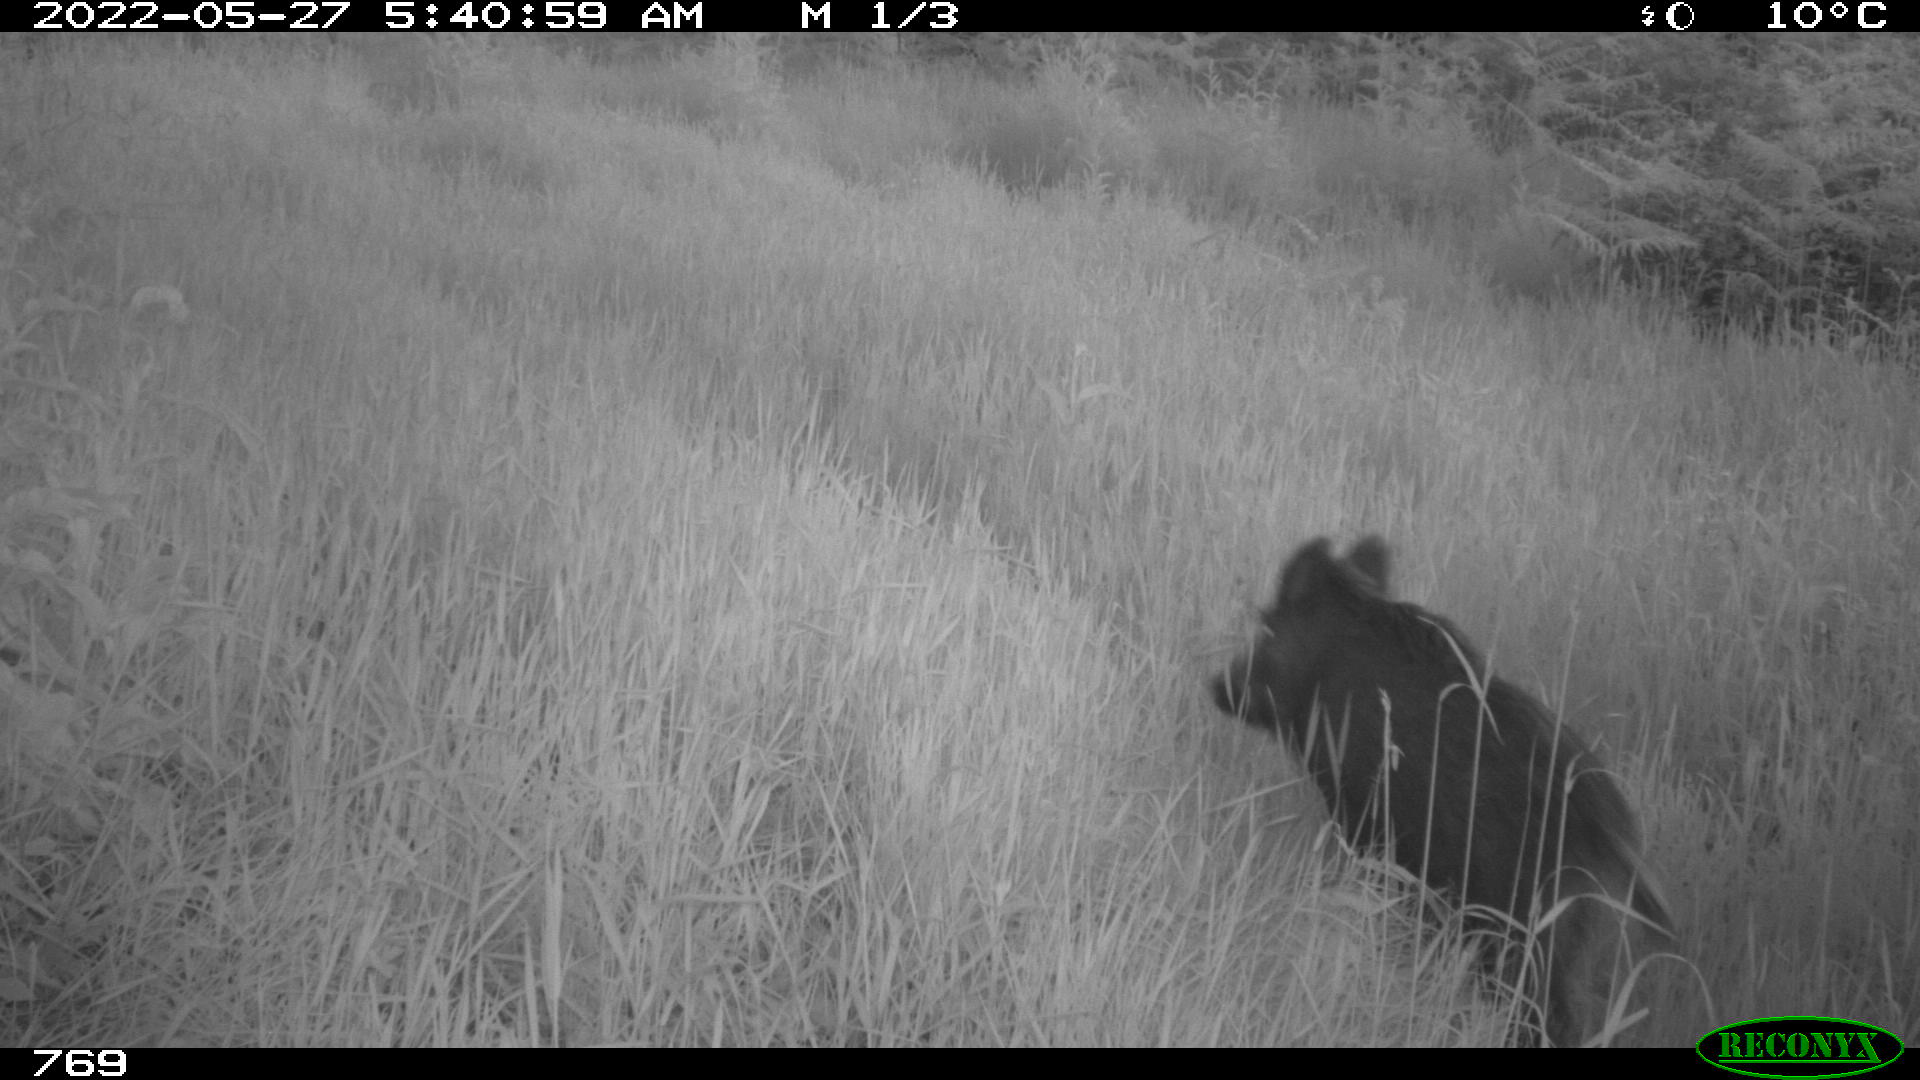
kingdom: Animalia
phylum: Chordata
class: Mammalia
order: Artiodactyla
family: Suidae
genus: Sus
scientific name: Sus scrofa
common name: Wild boar
